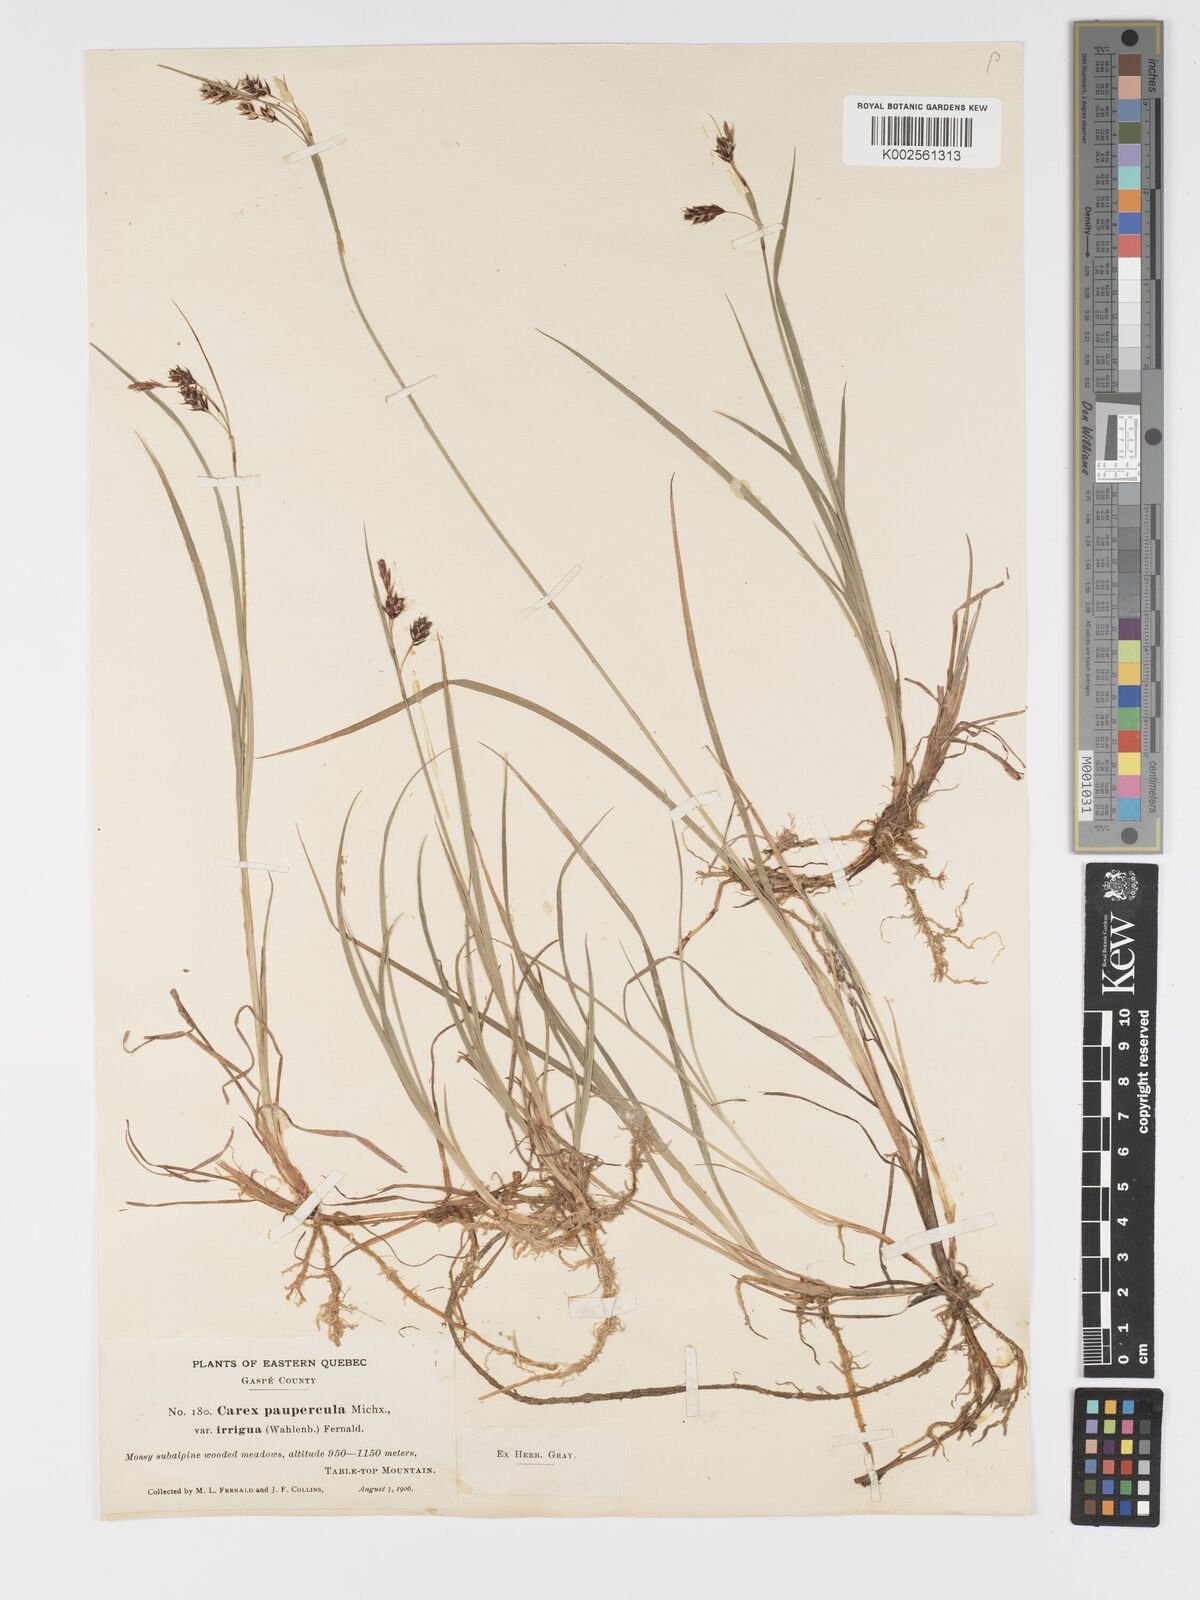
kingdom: Plantae
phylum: Tracheophyta
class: Liliopsida
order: Poales
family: Cyperaceae
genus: Carex
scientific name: Carex magellanica
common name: Bog sedge
